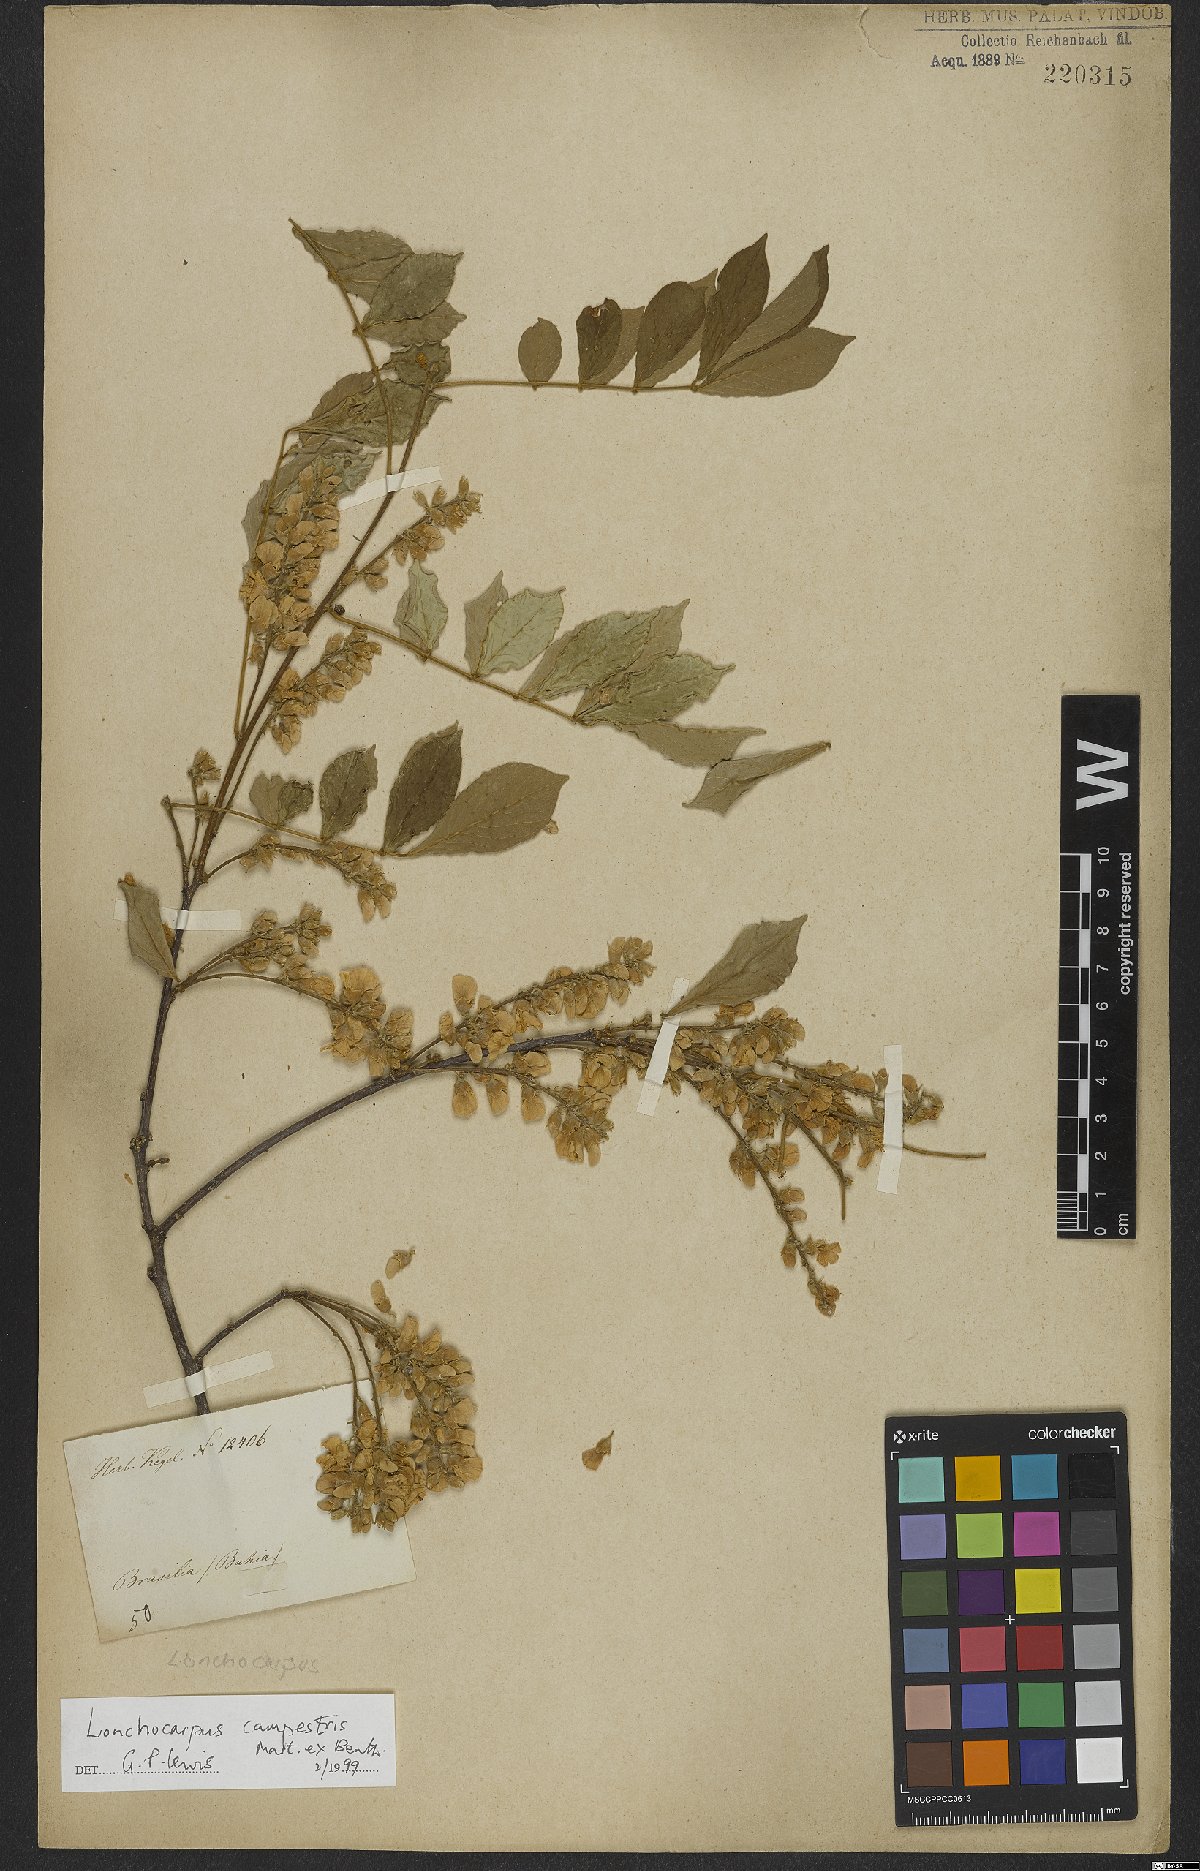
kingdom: Plantae
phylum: Tracheophyta
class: Magnoliopsida
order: Fabales
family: Fabaceae
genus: Muellera
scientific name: Muellera campestris
